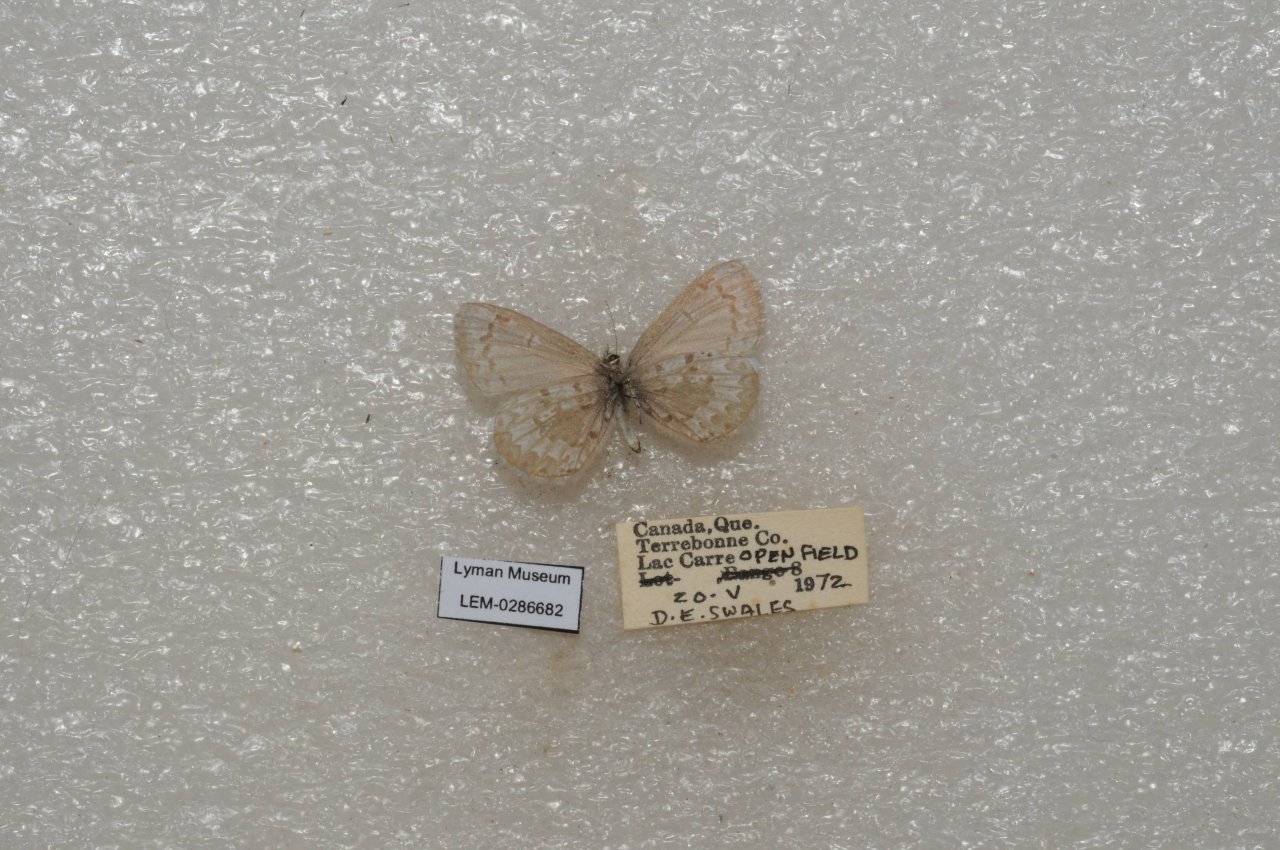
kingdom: Animalia
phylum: Arthropoda
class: Insecta
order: Lepidoptera
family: Lycaenidae
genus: Celastrina
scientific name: Celastrina lucia
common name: Northern Spring Azure
